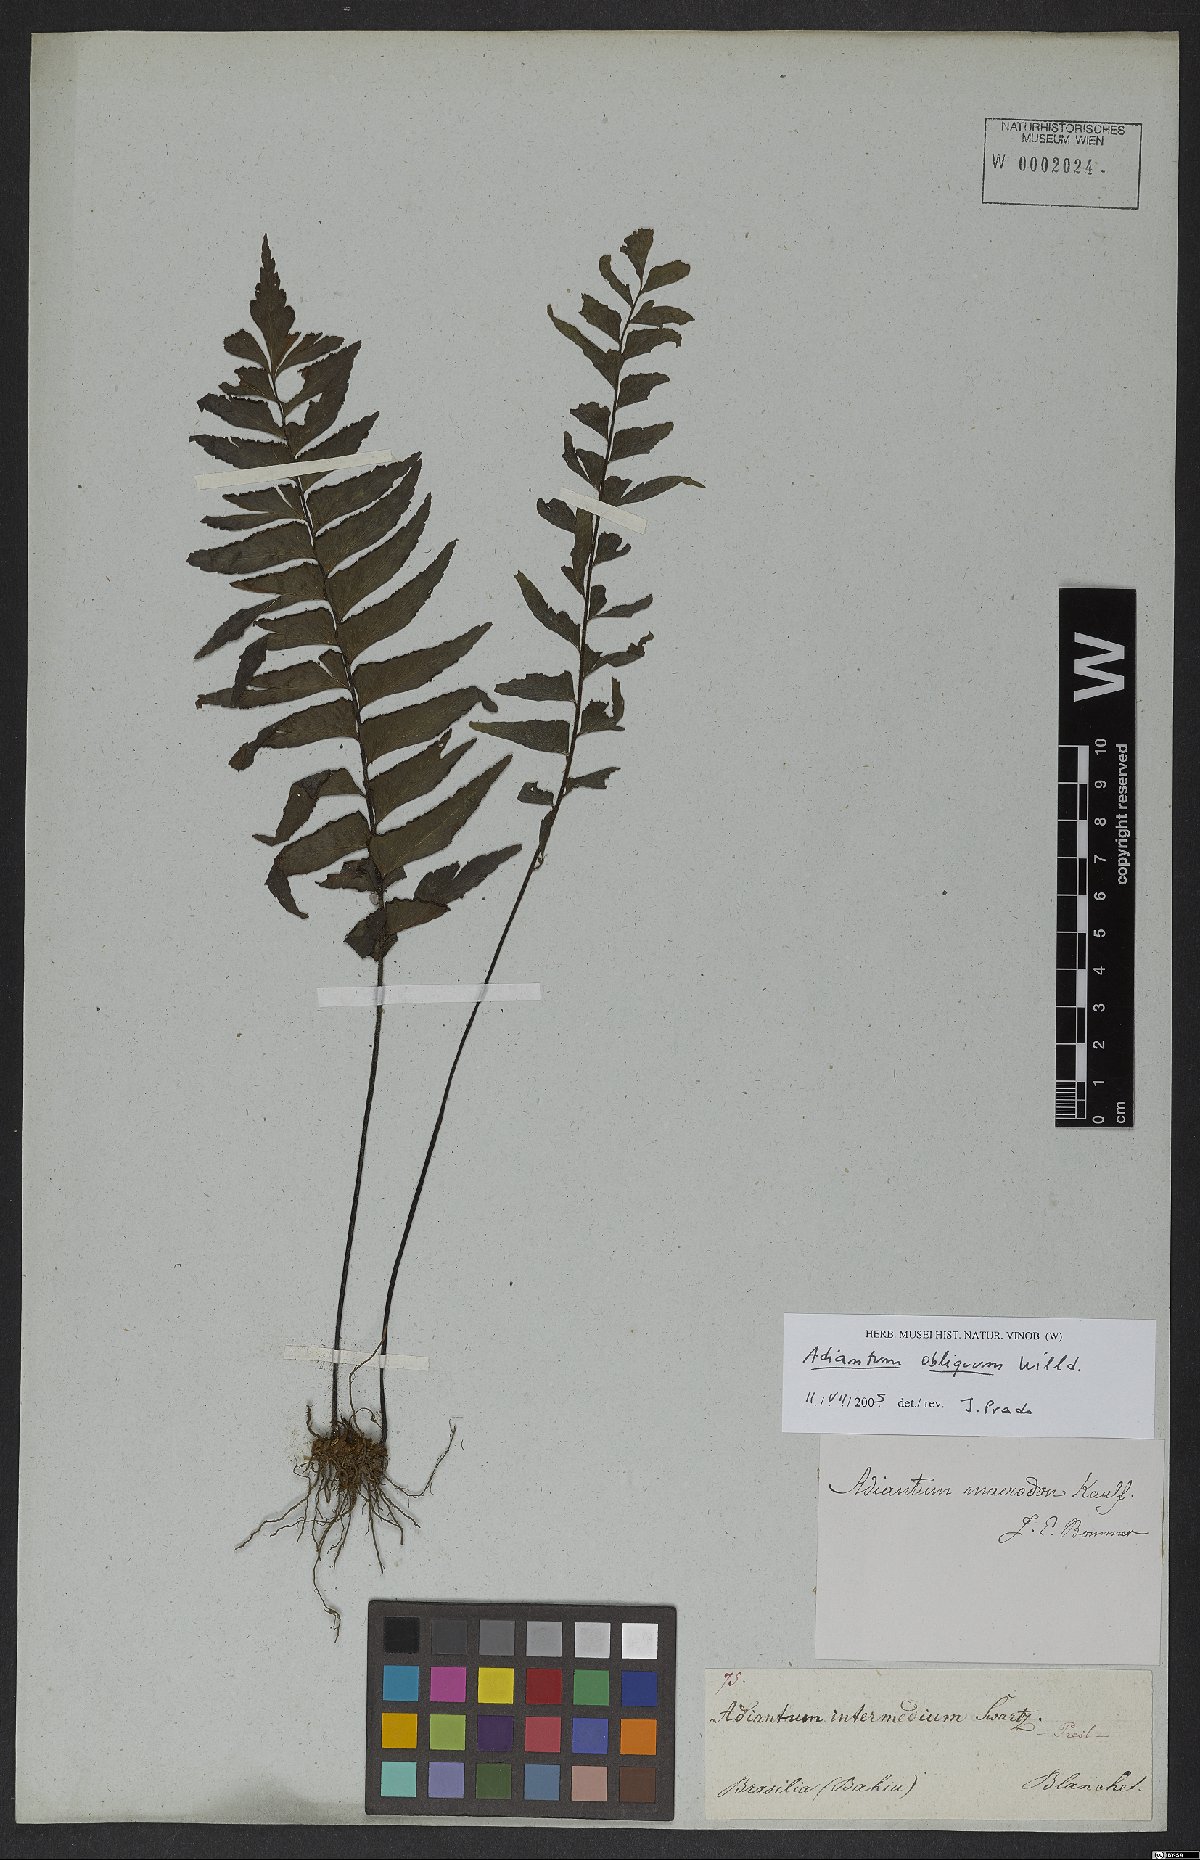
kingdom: Plantae
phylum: Tracheophyta
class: Polypodiopsida
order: Polypodiales
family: Pteridaceae
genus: Adiantum
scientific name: Adiantum obliquum
